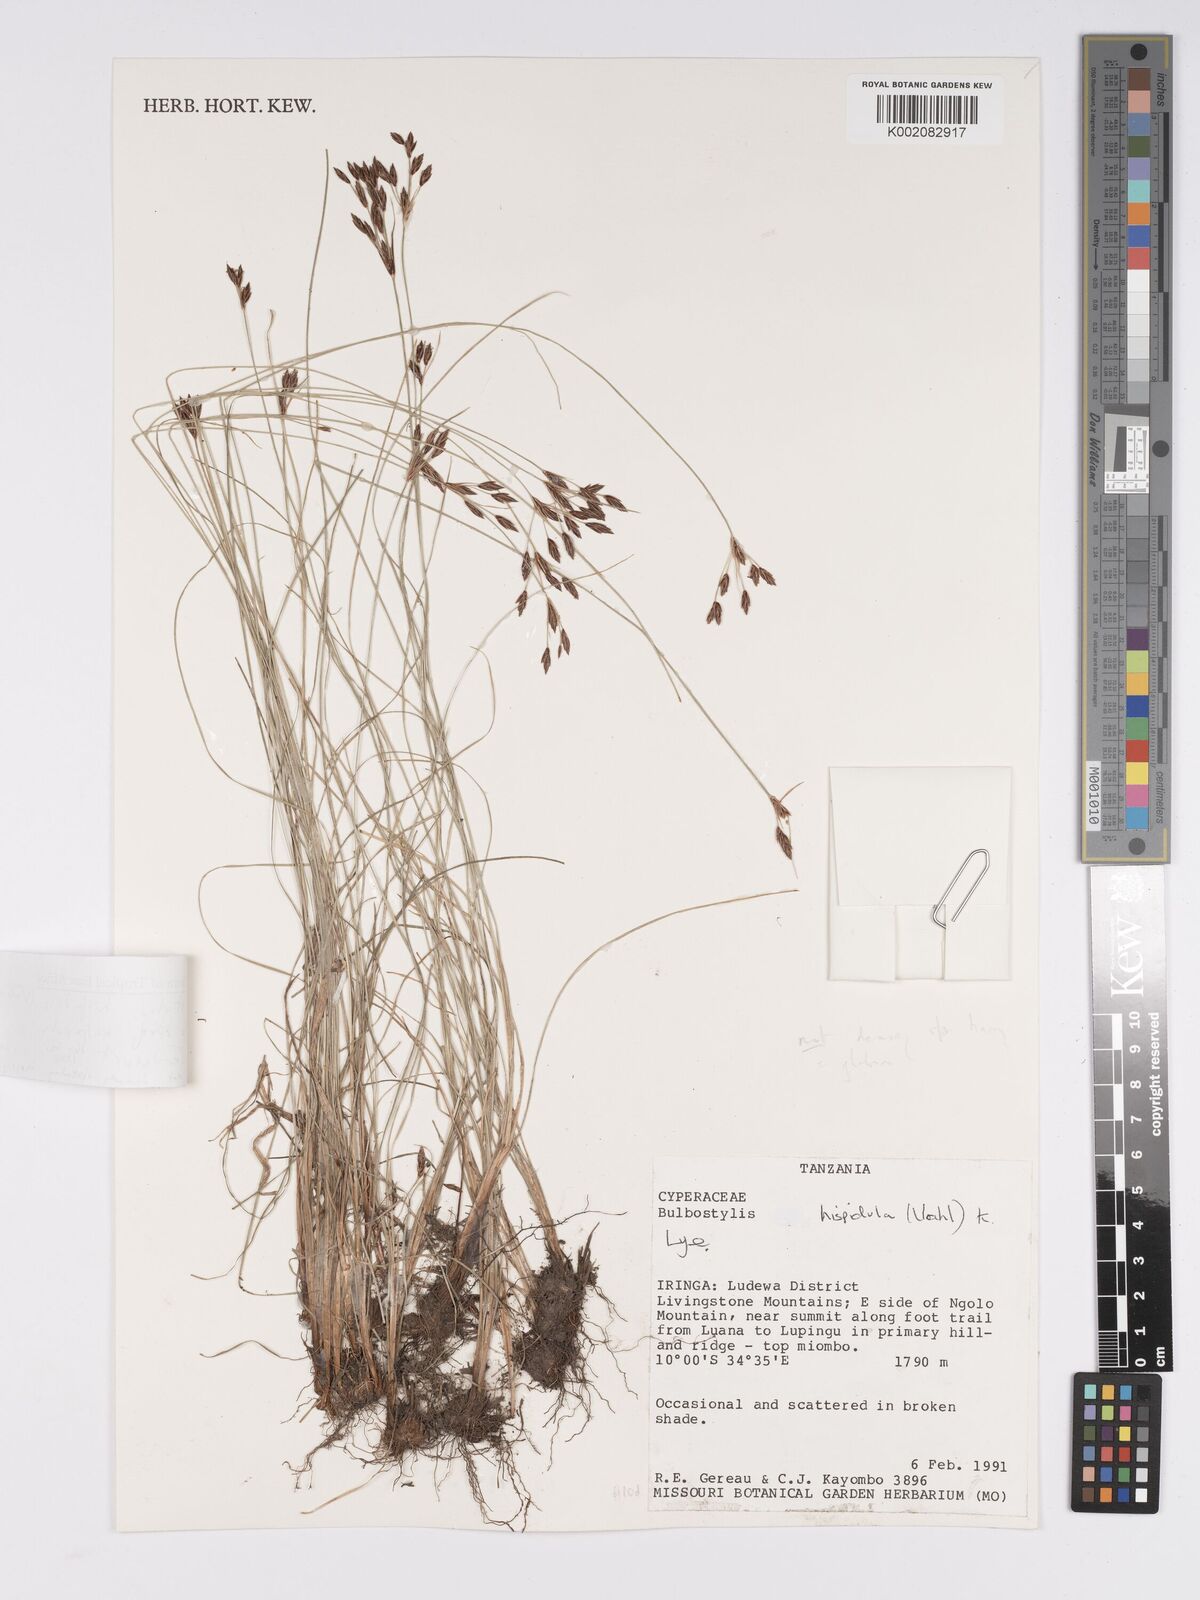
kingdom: Plantae
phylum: Tracheophyta
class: Liliopsida
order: Poales
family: Cyperaceae
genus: Bulbostylis
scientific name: Bulbostylis hispidula
